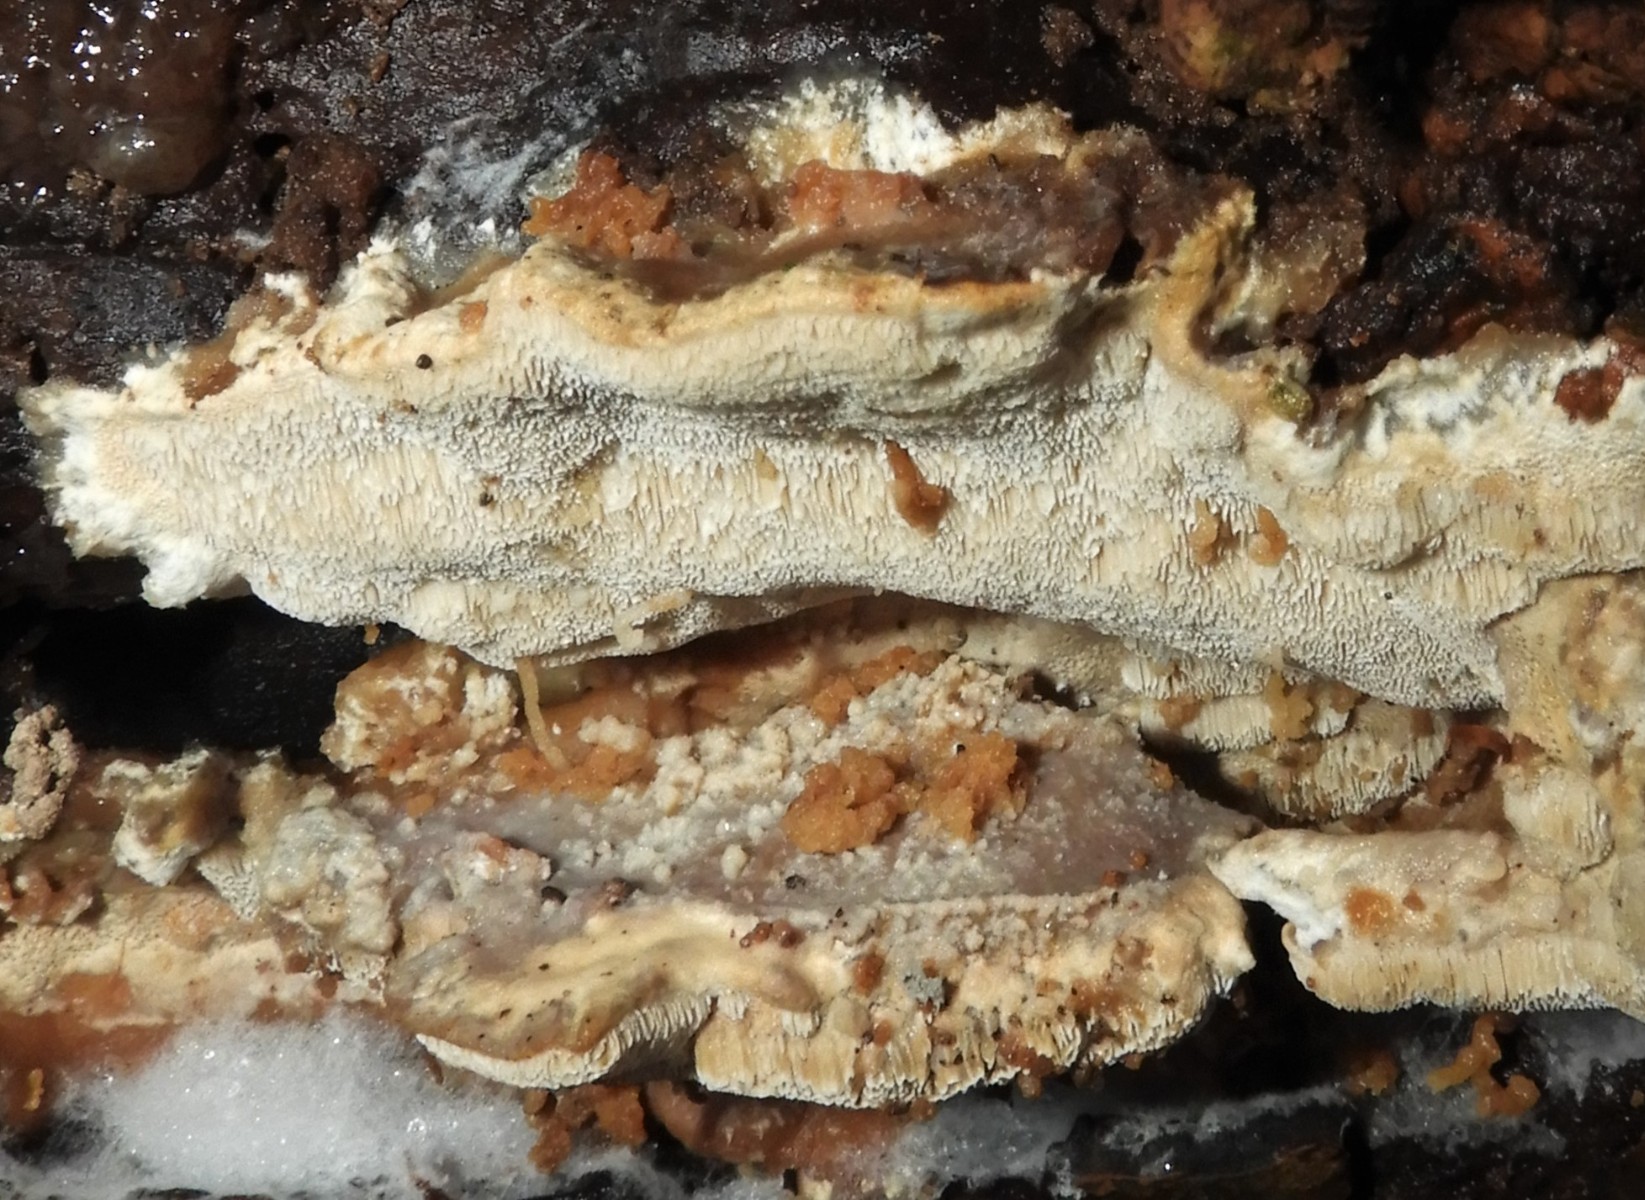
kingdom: Fungi
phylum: Basidiomycota
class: Agaricomycetes
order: Polyporales
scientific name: Polyporales
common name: poresvampordenen
